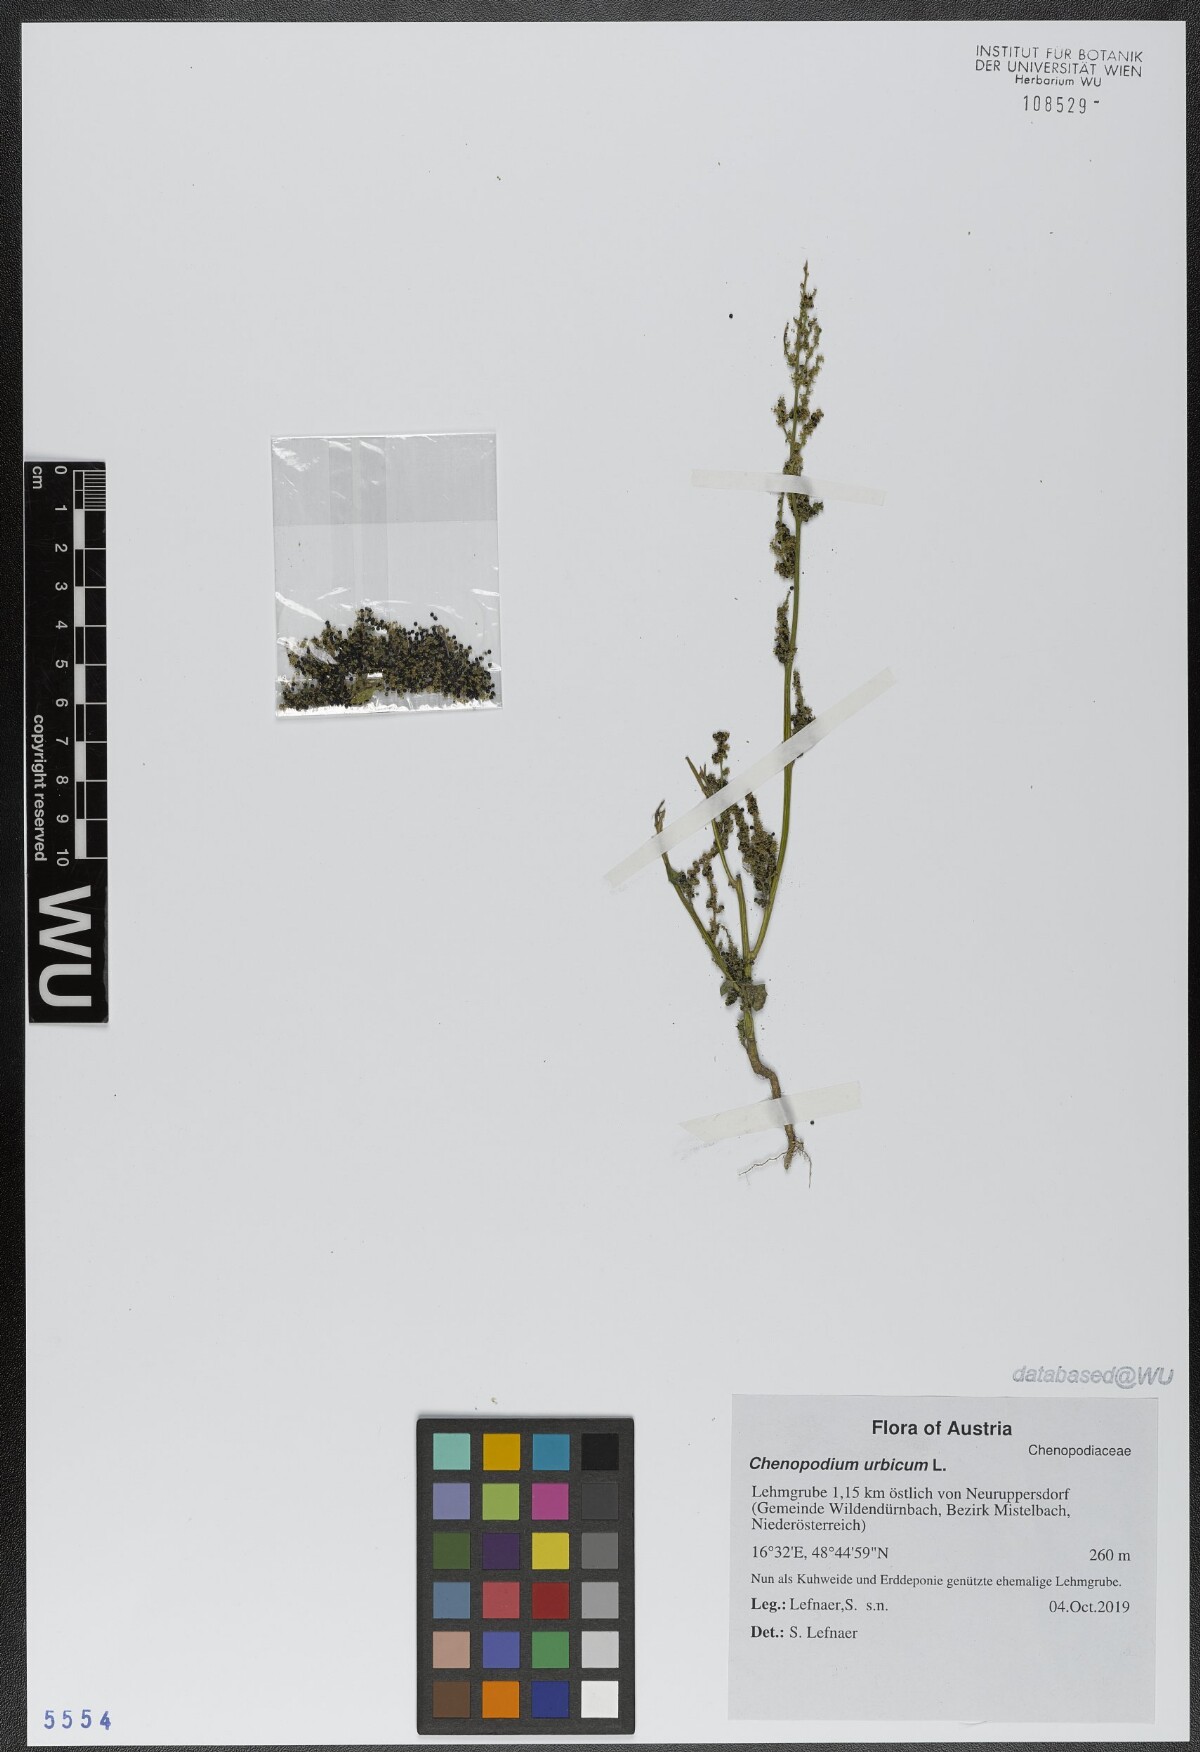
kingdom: Plantae
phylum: Tracheophyta
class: Magnoliopsida
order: Caryophyllales
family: Amaranthaceae
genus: Oxybasis
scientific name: Oxybasis urbica
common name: City goosefoot
